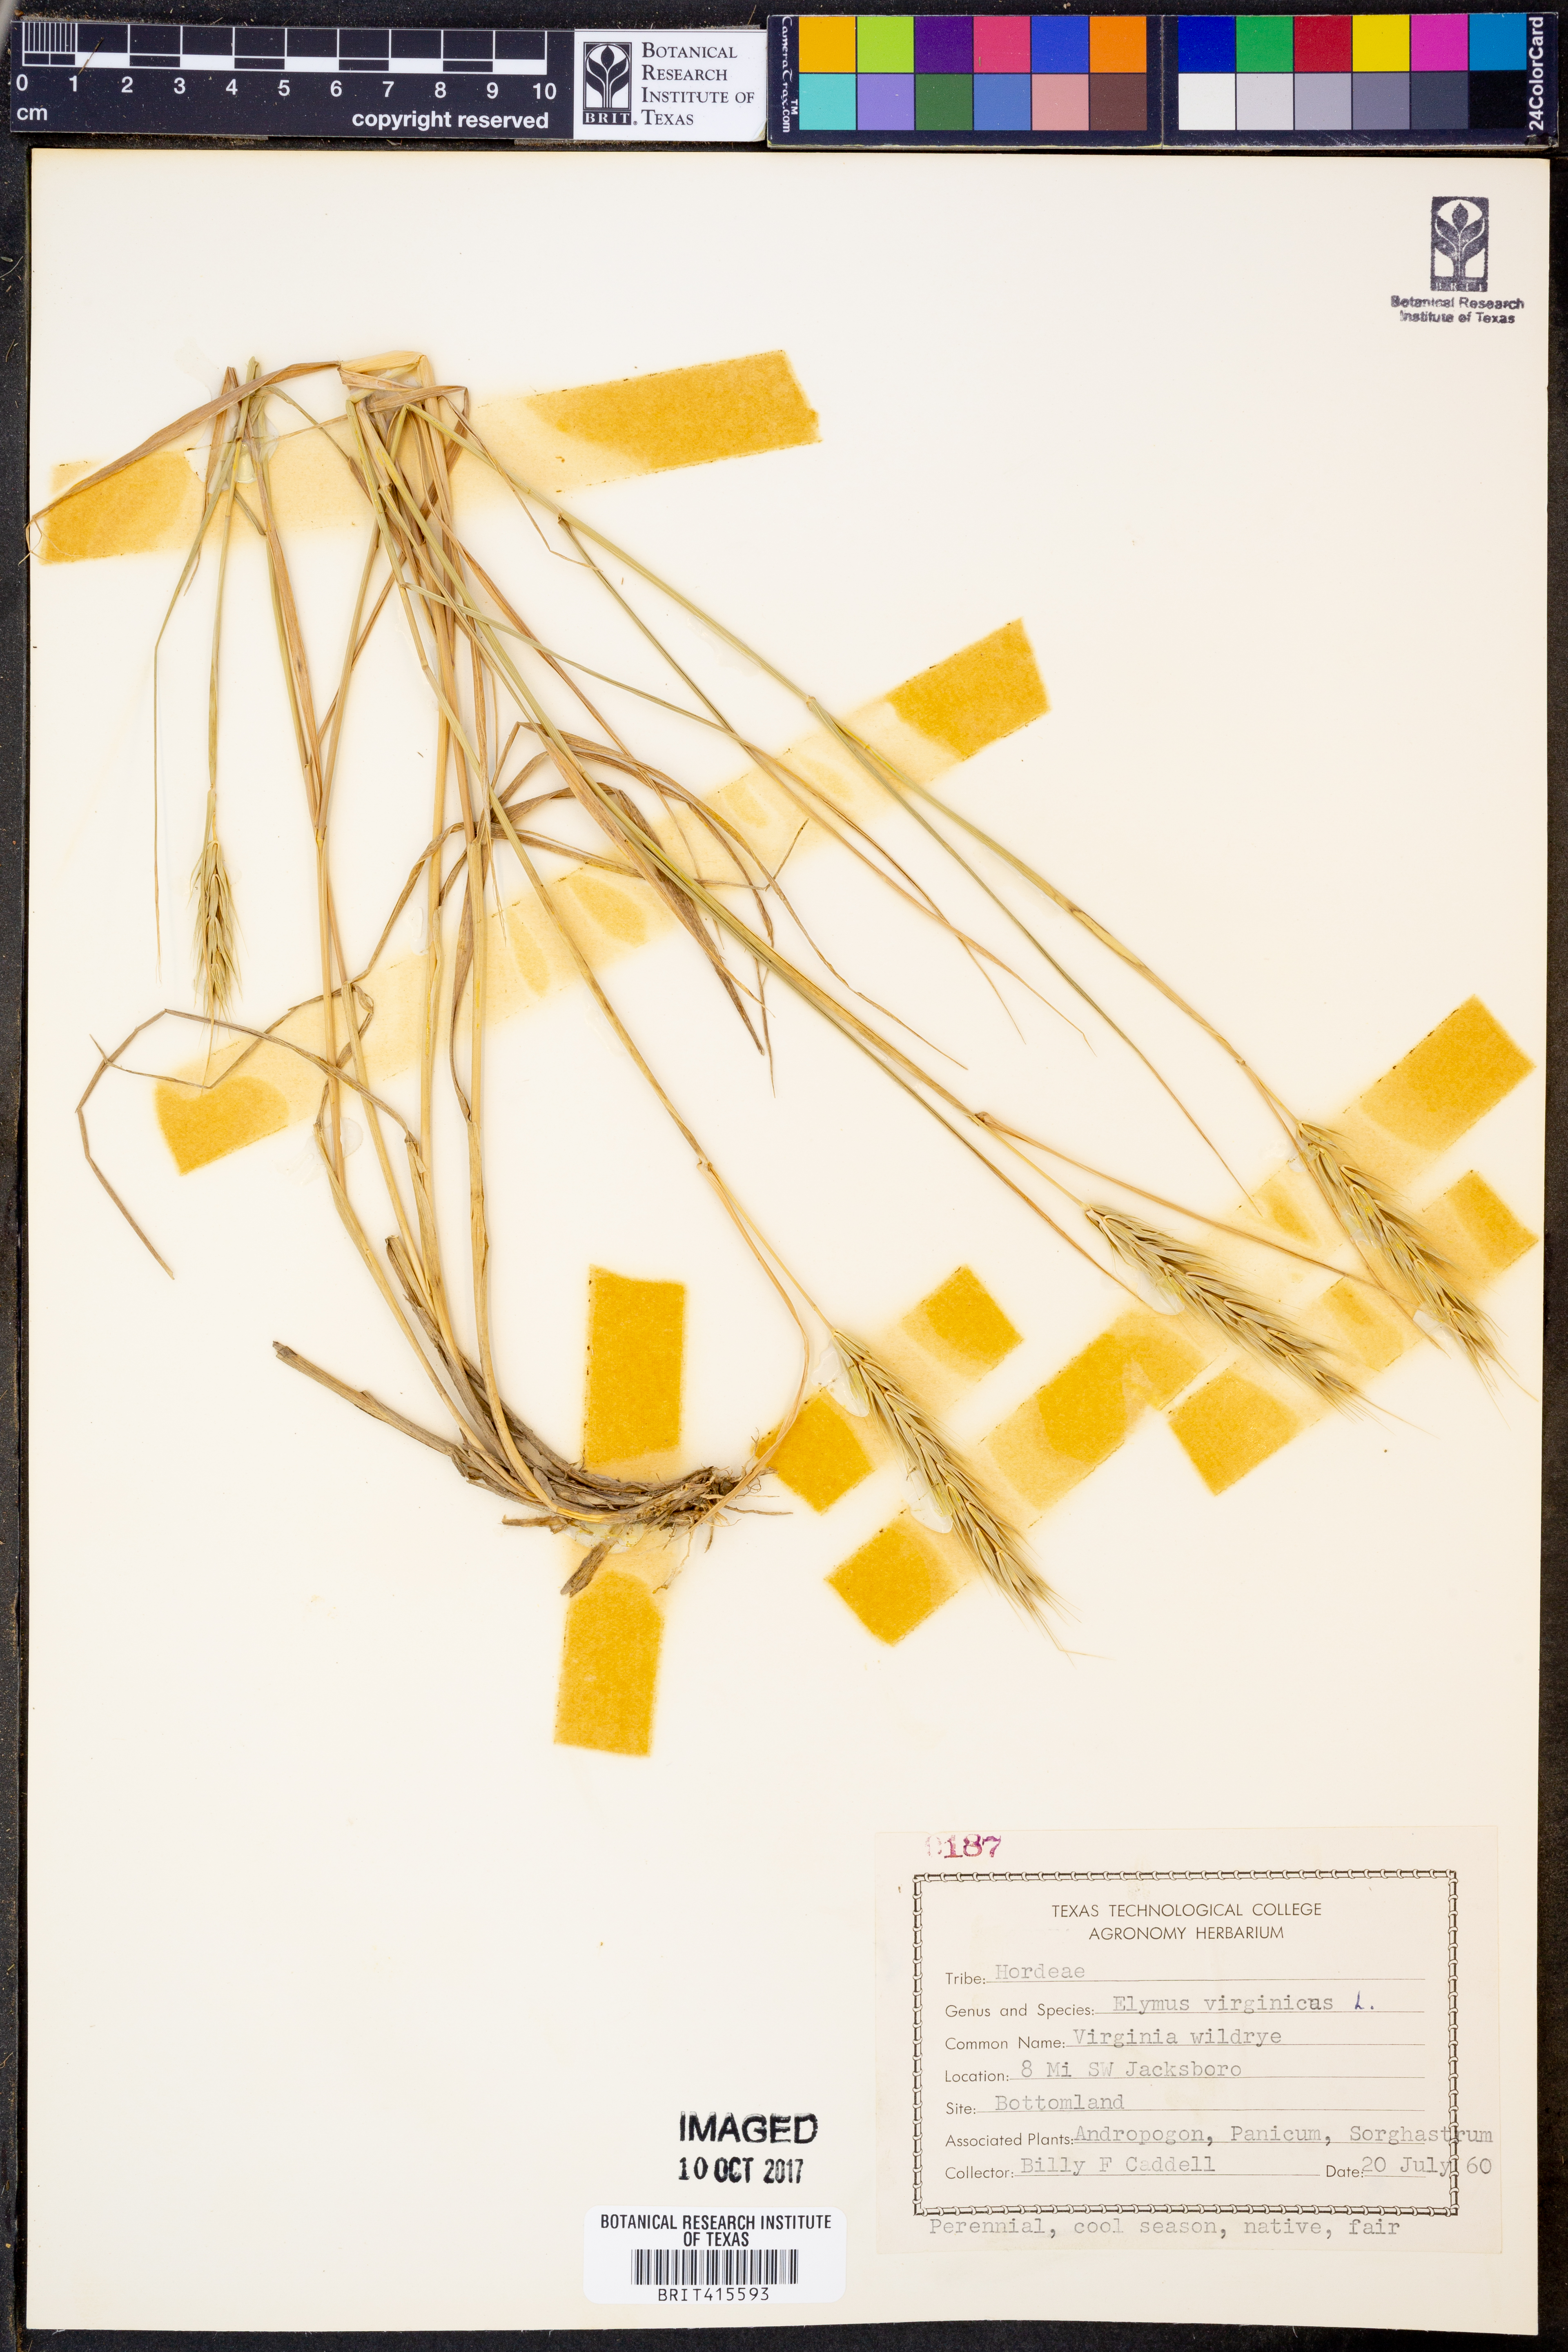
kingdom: Plantae
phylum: Tracheophyta
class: Liliopsida
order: Poales
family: Poaceae
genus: Elymus
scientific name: Elymus virginicus
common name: Common eastern wildrye
